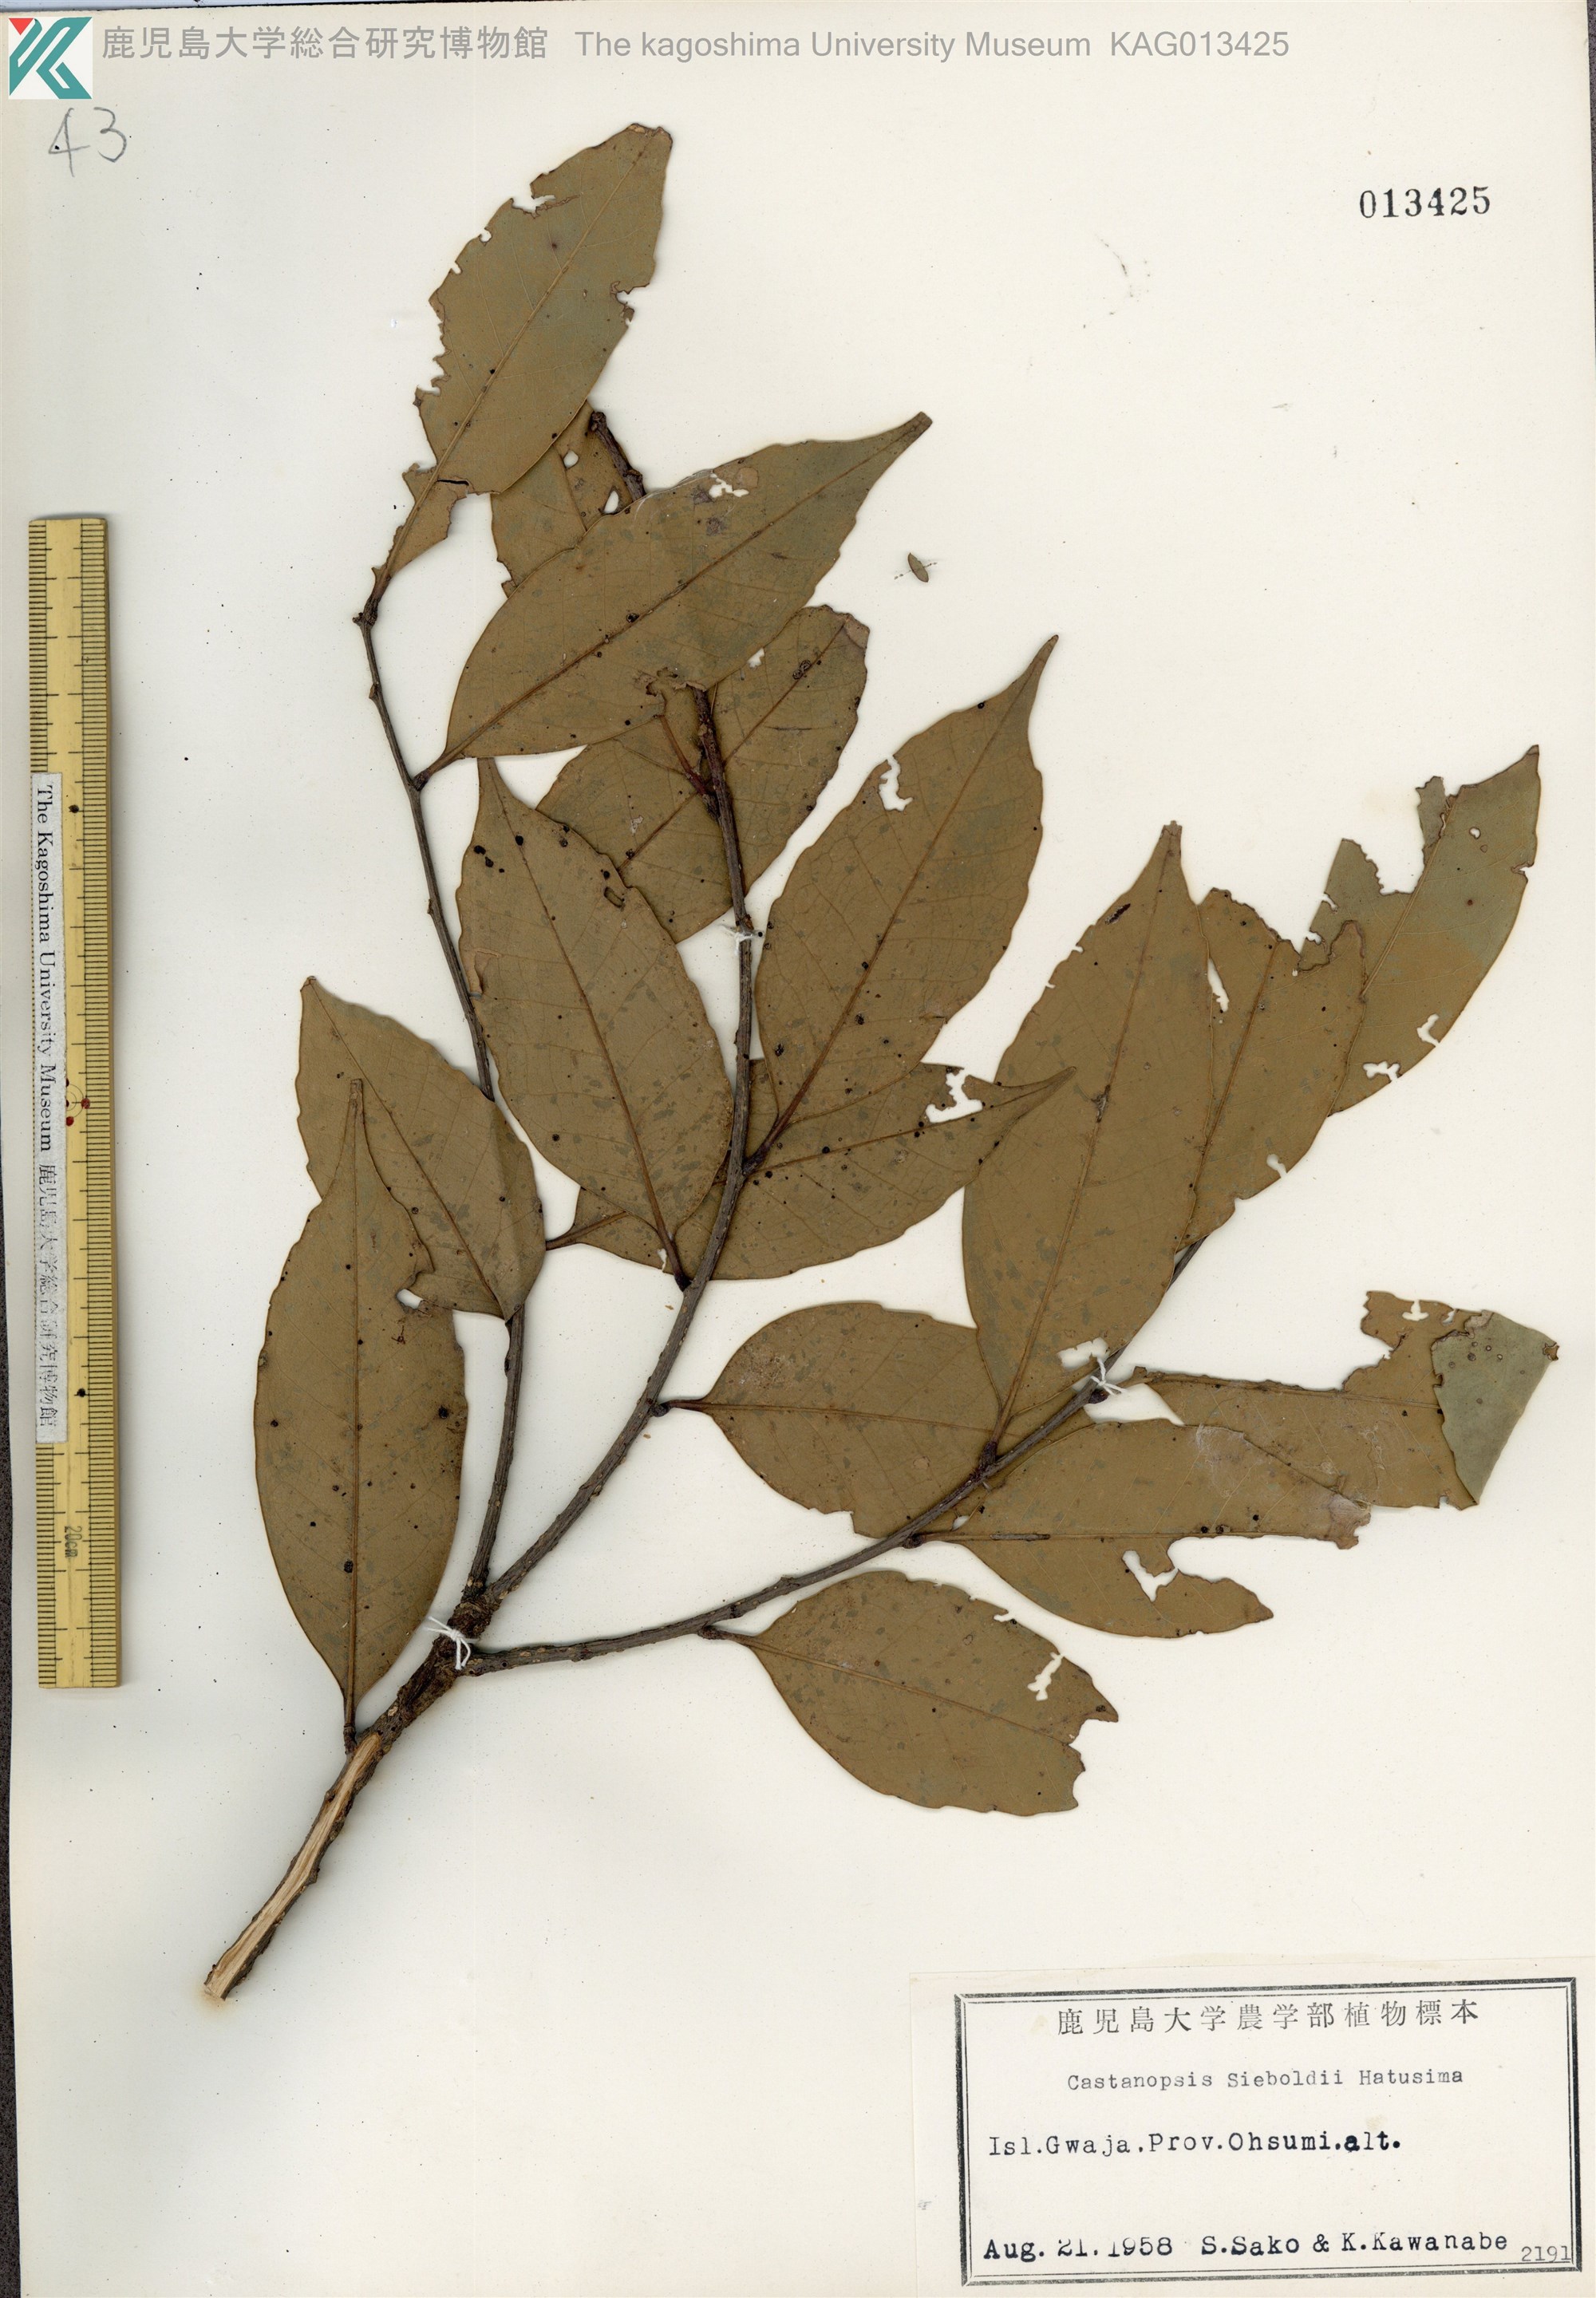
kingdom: Plantae
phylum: Tracheophyta
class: Magnoliopsida
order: Fagales
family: Fagaceae
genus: Castanopsis
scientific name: Castanopsis sieboldii
